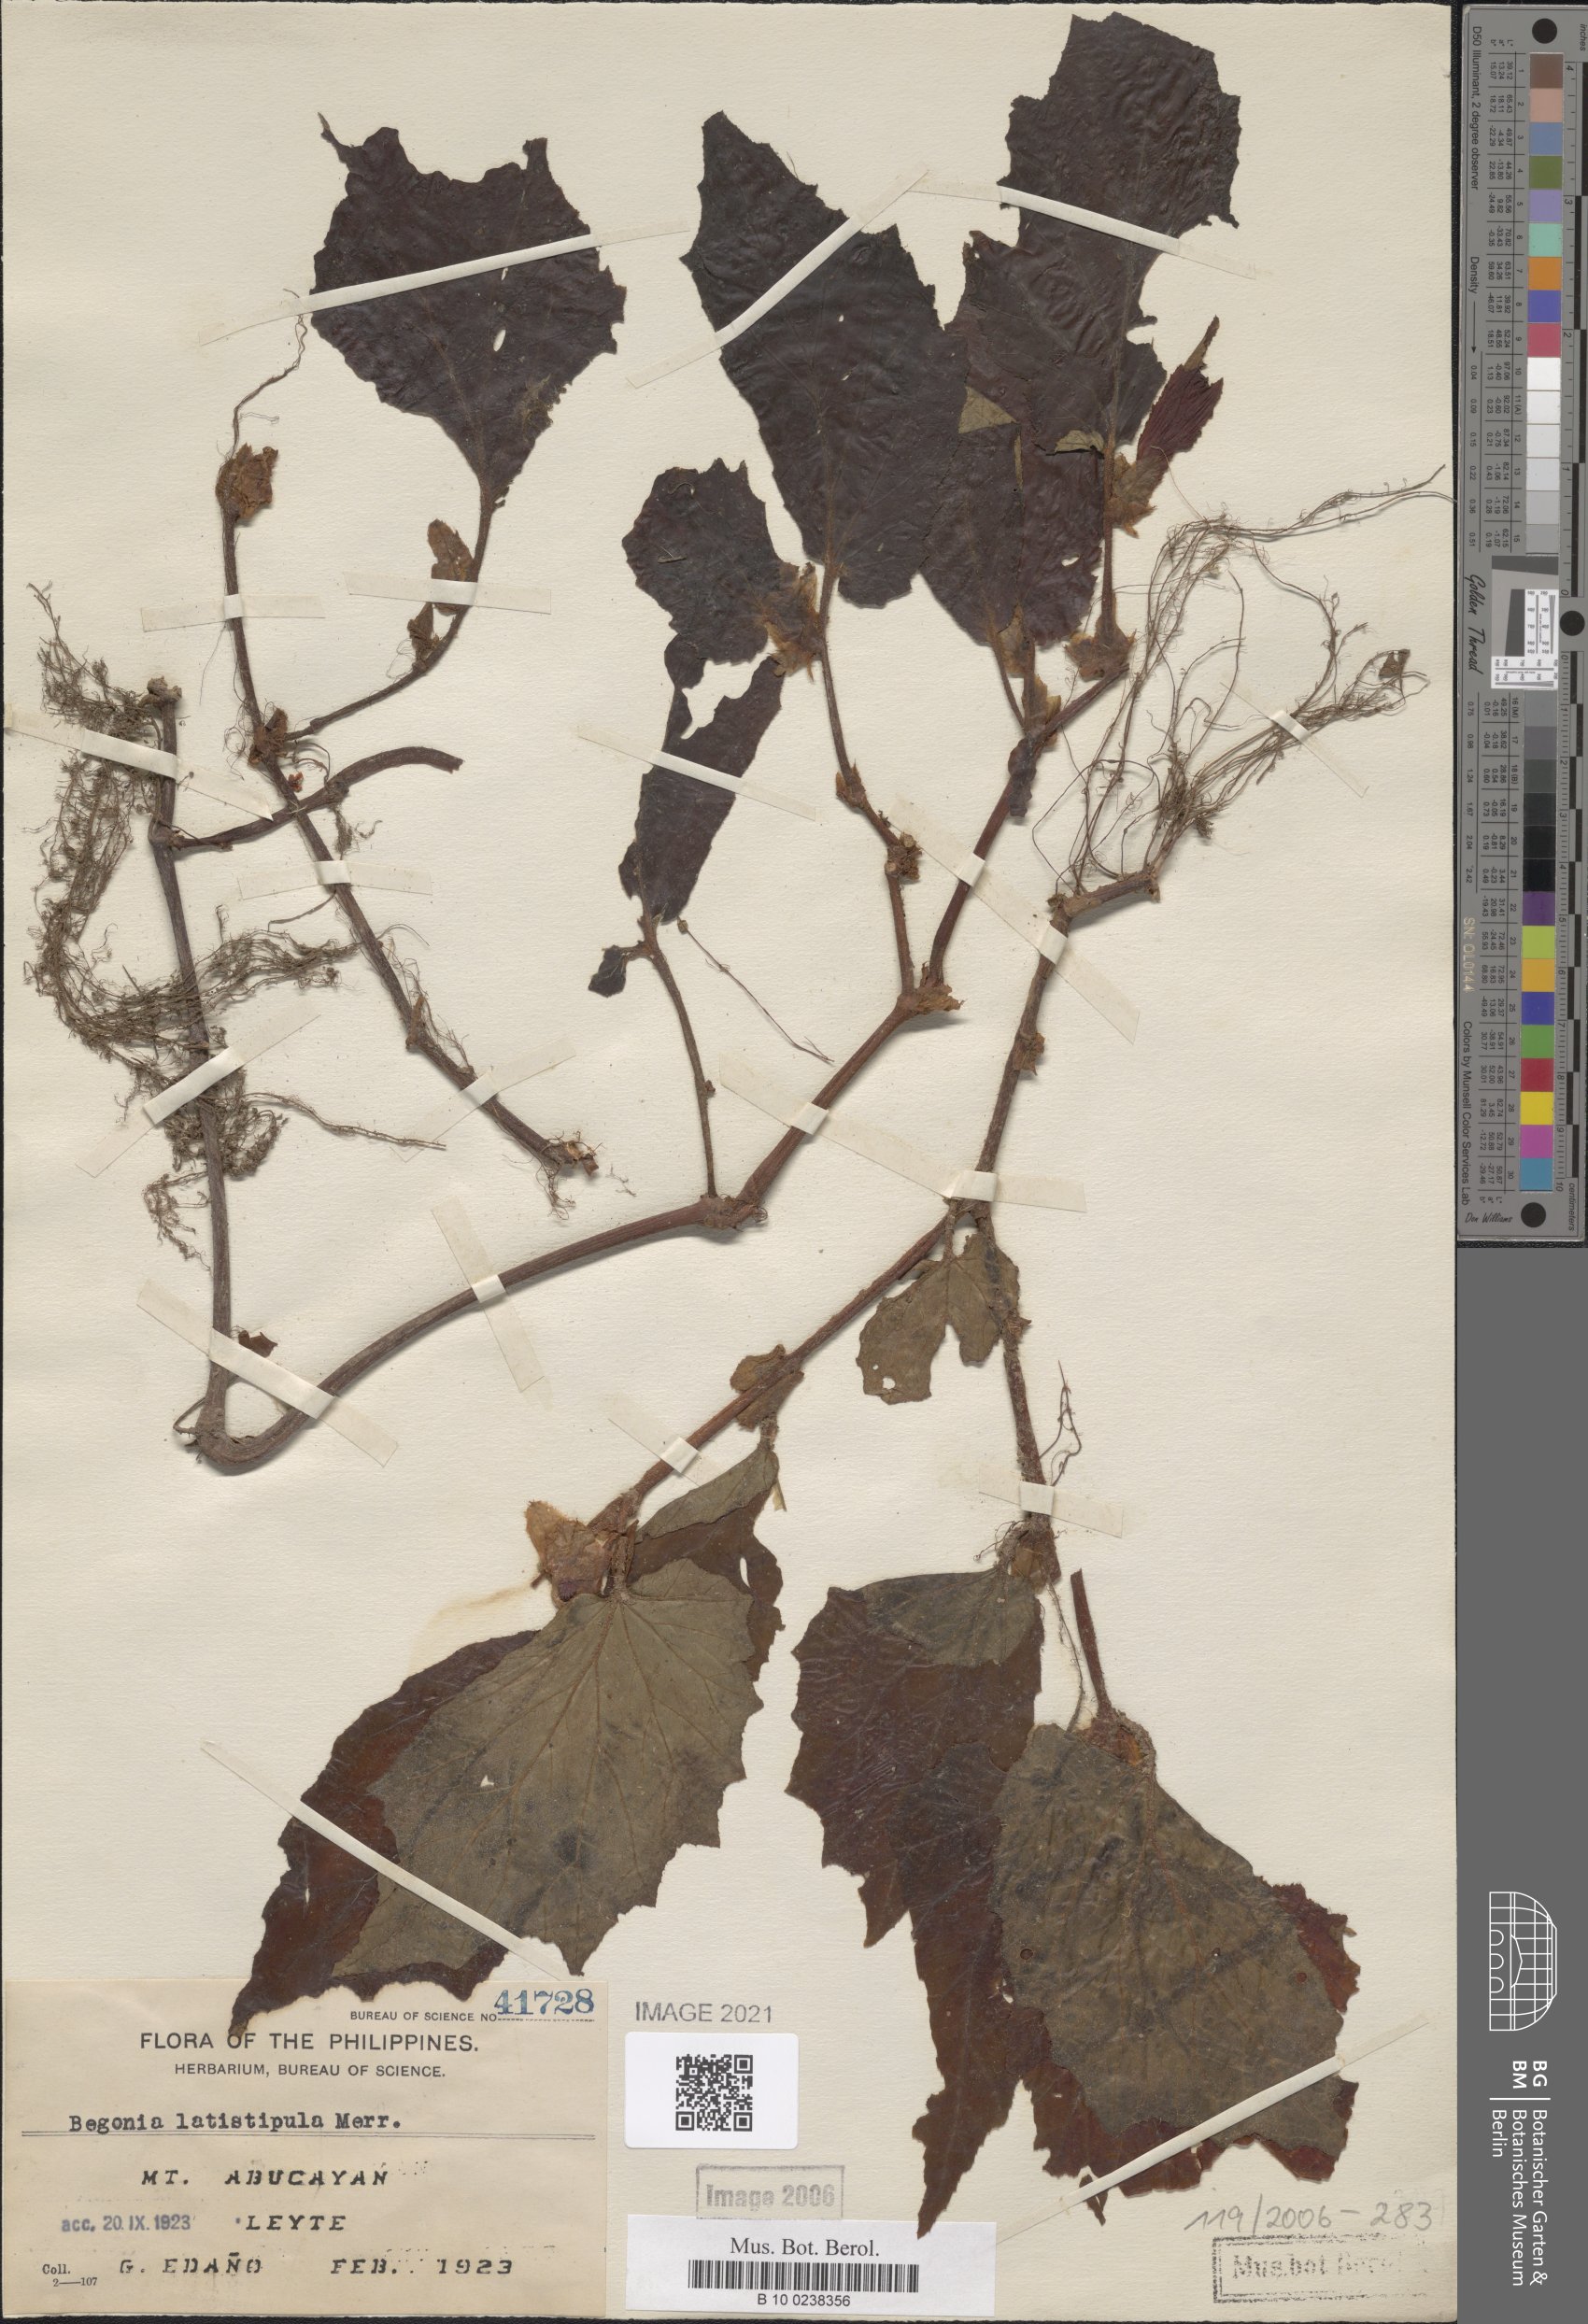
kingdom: Plantae
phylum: Tracheophyta
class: Magnoliopsida
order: Cucurbitales
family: Begoniaceae
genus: Begonia
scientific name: Begonia latistipula
